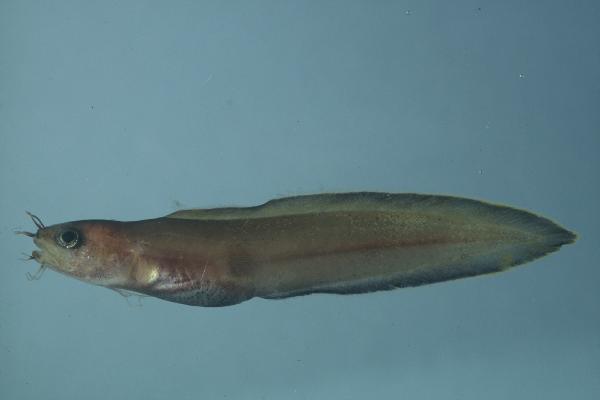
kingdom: Animalia
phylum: Chordata
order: Ophidiiformes
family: Ophidiidae
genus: Brotula
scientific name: Brotula multibarbata
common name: Goatsbeard brotula
